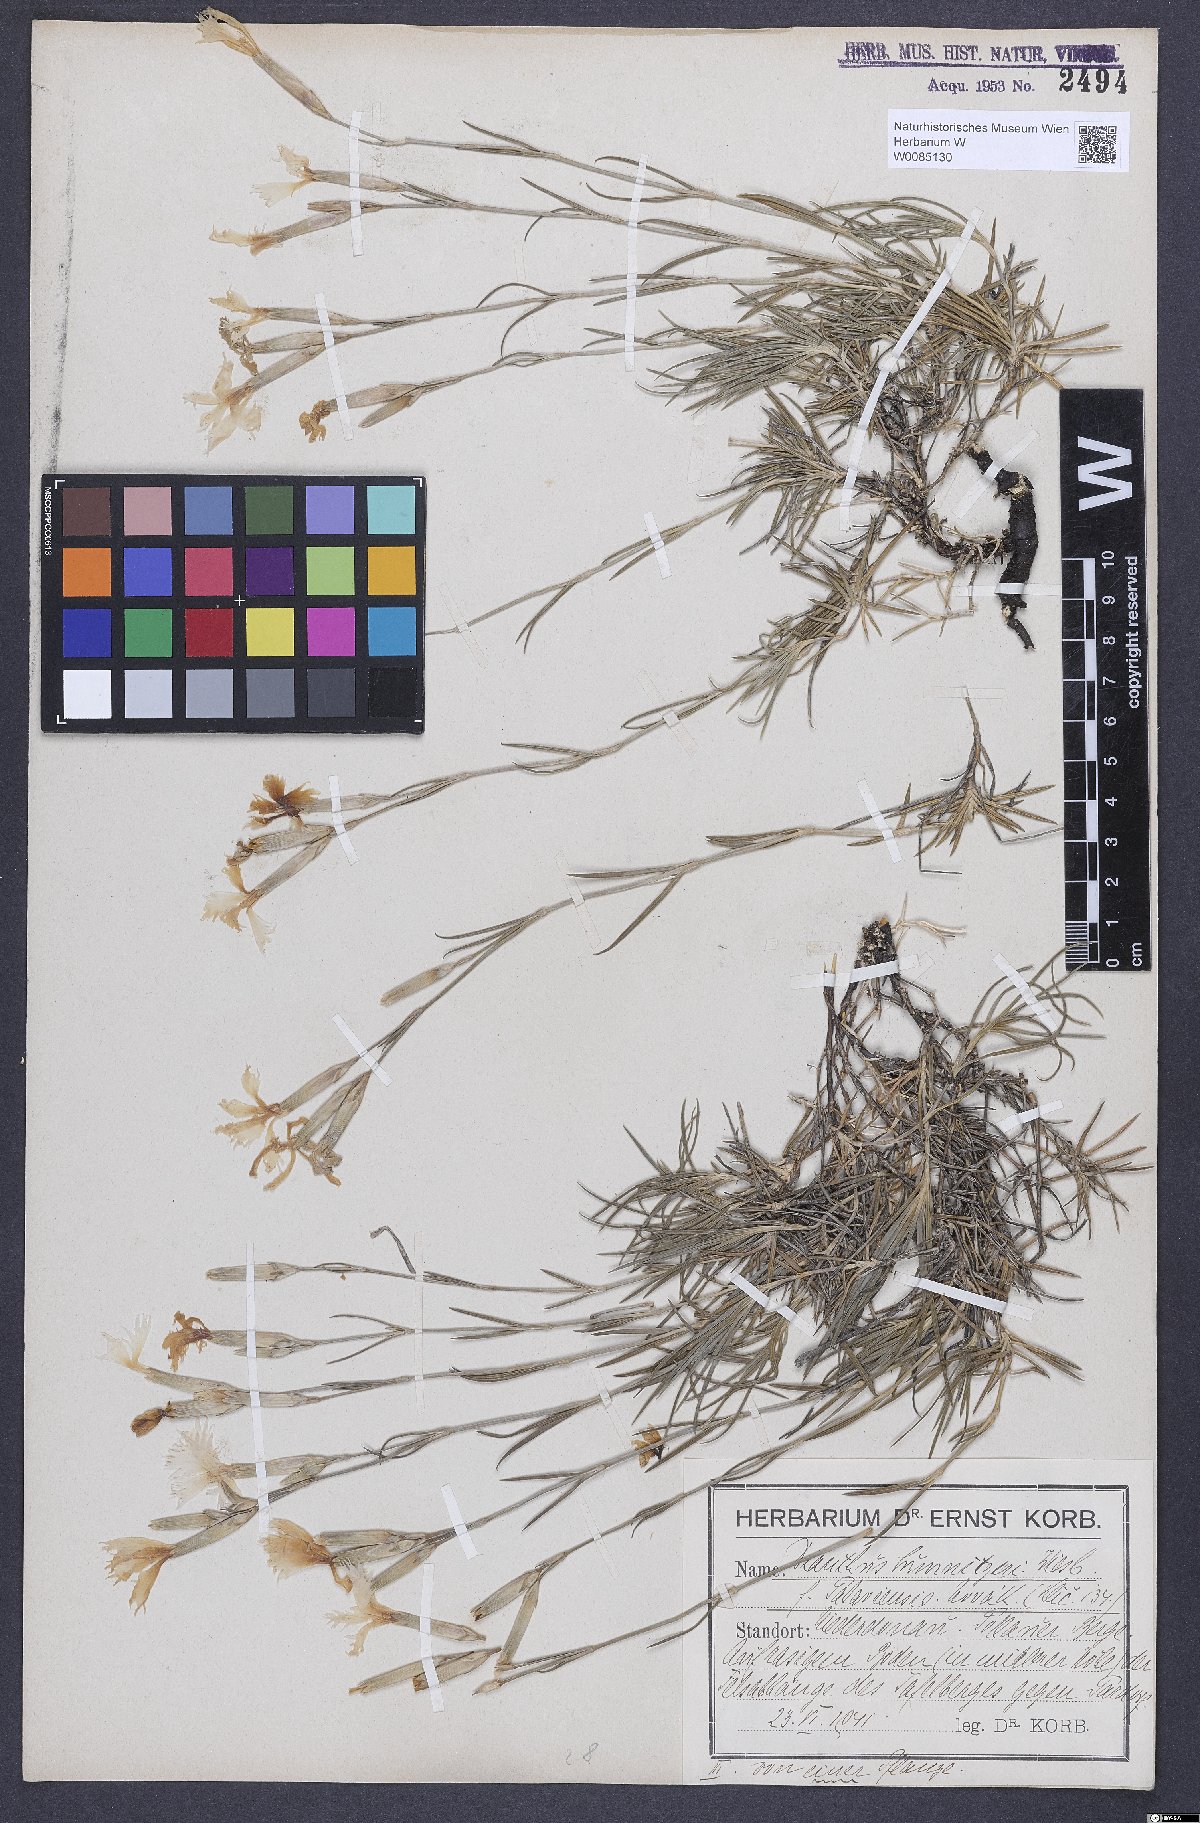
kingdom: Plantae
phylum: Tracheophyta
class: Magnoliopsida
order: Caryophyllales
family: Caryophyllaceae
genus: Dianthus
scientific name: Dianthus praecox
